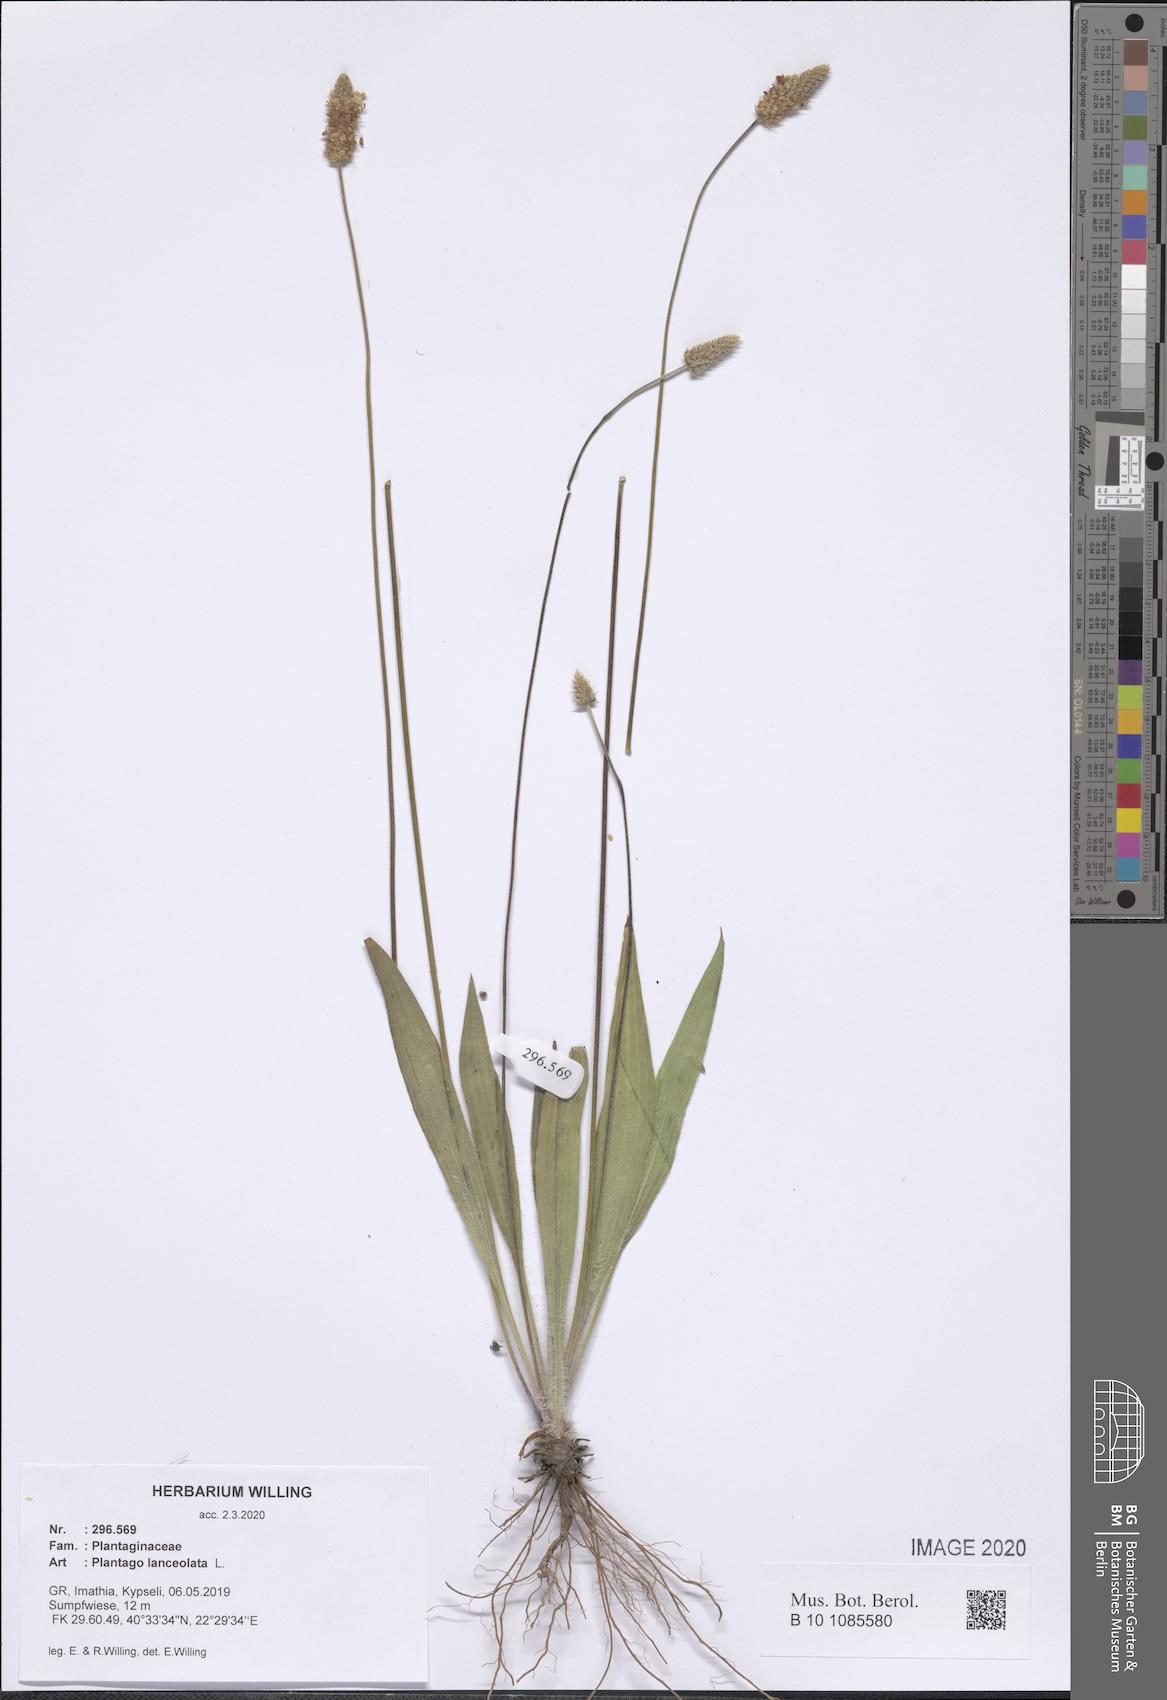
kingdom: Plantae
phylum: Tracheophyta
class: Magnoliopsida
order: Lamiales
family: Plantaginaceae
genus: Plantago
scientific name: Plantago lanceolata
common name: Ribwort plantain
